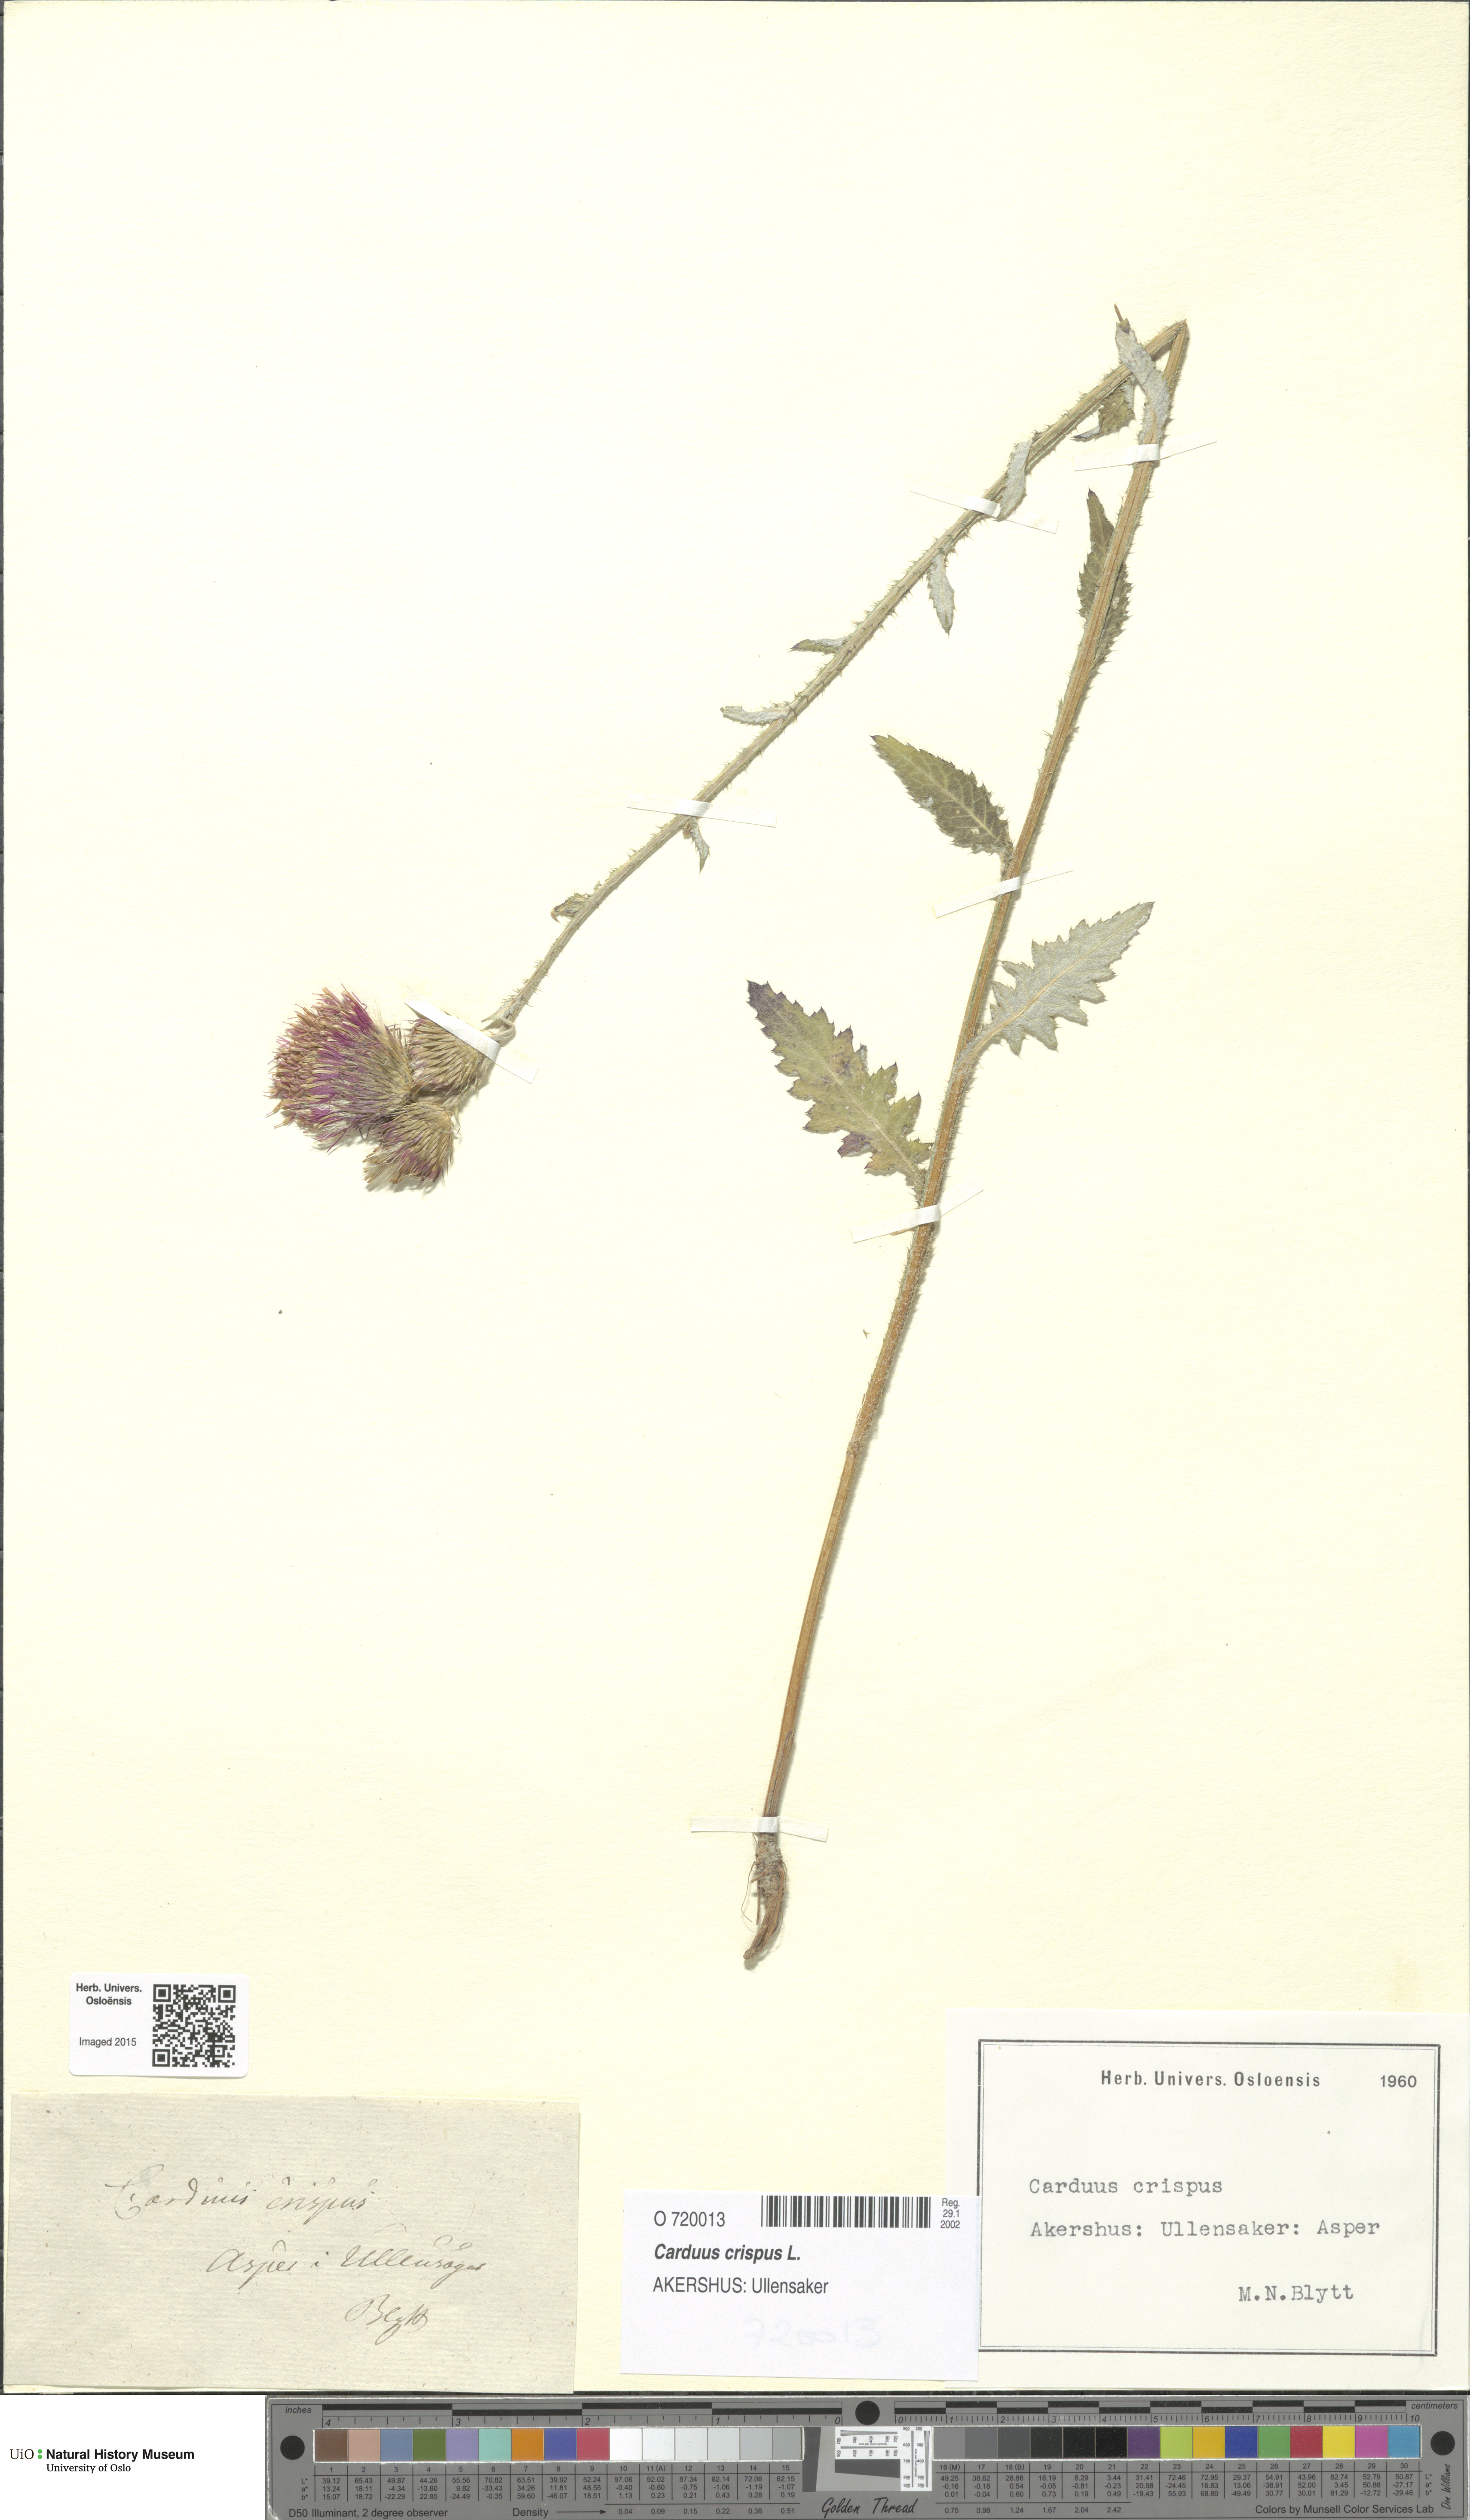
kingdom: Plantae
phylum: Tracheophyta
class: Magnoliopsida
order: Asterales
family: Asteraceae
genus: Carduus
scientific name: Carduus crispus
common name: Welted thistle
